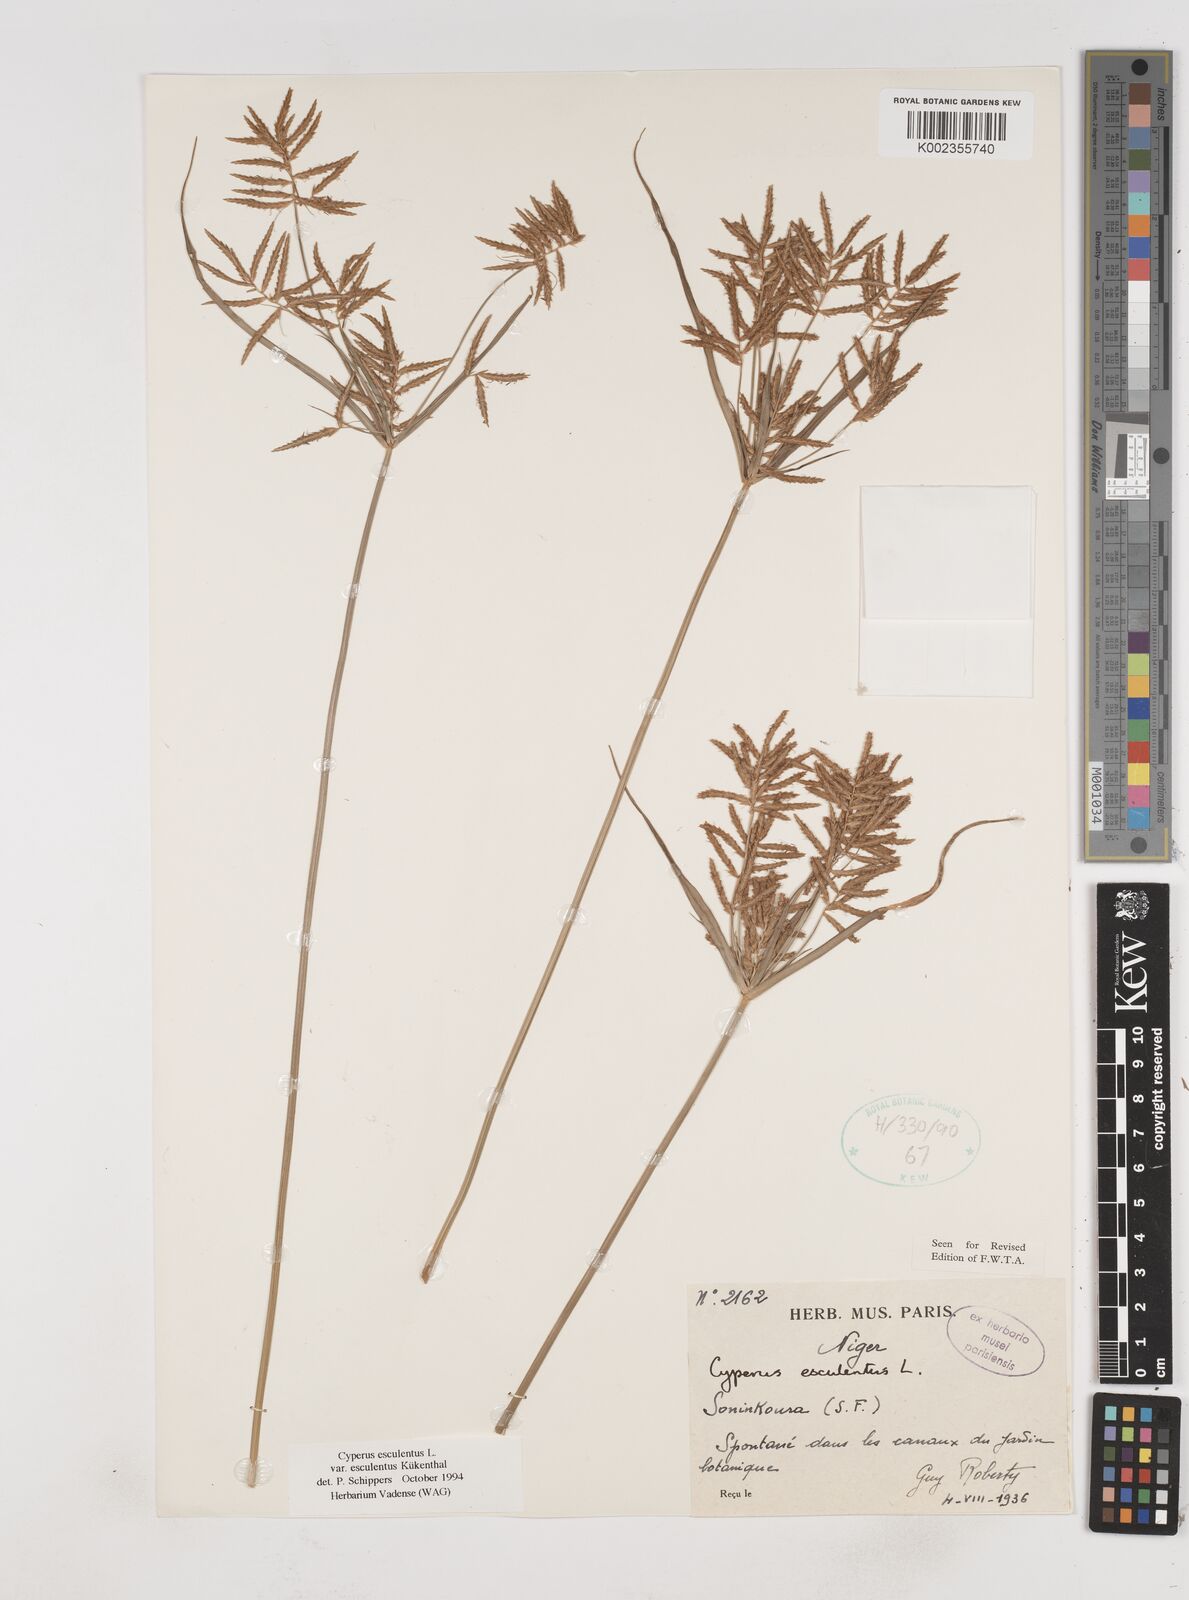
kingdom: Plantae
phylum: Tracheophyta
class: Liliopsida
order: Poales
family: Cyperaceae
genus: Cyperus
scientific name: Cyperus esculentus
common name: Yellow nutsedge
